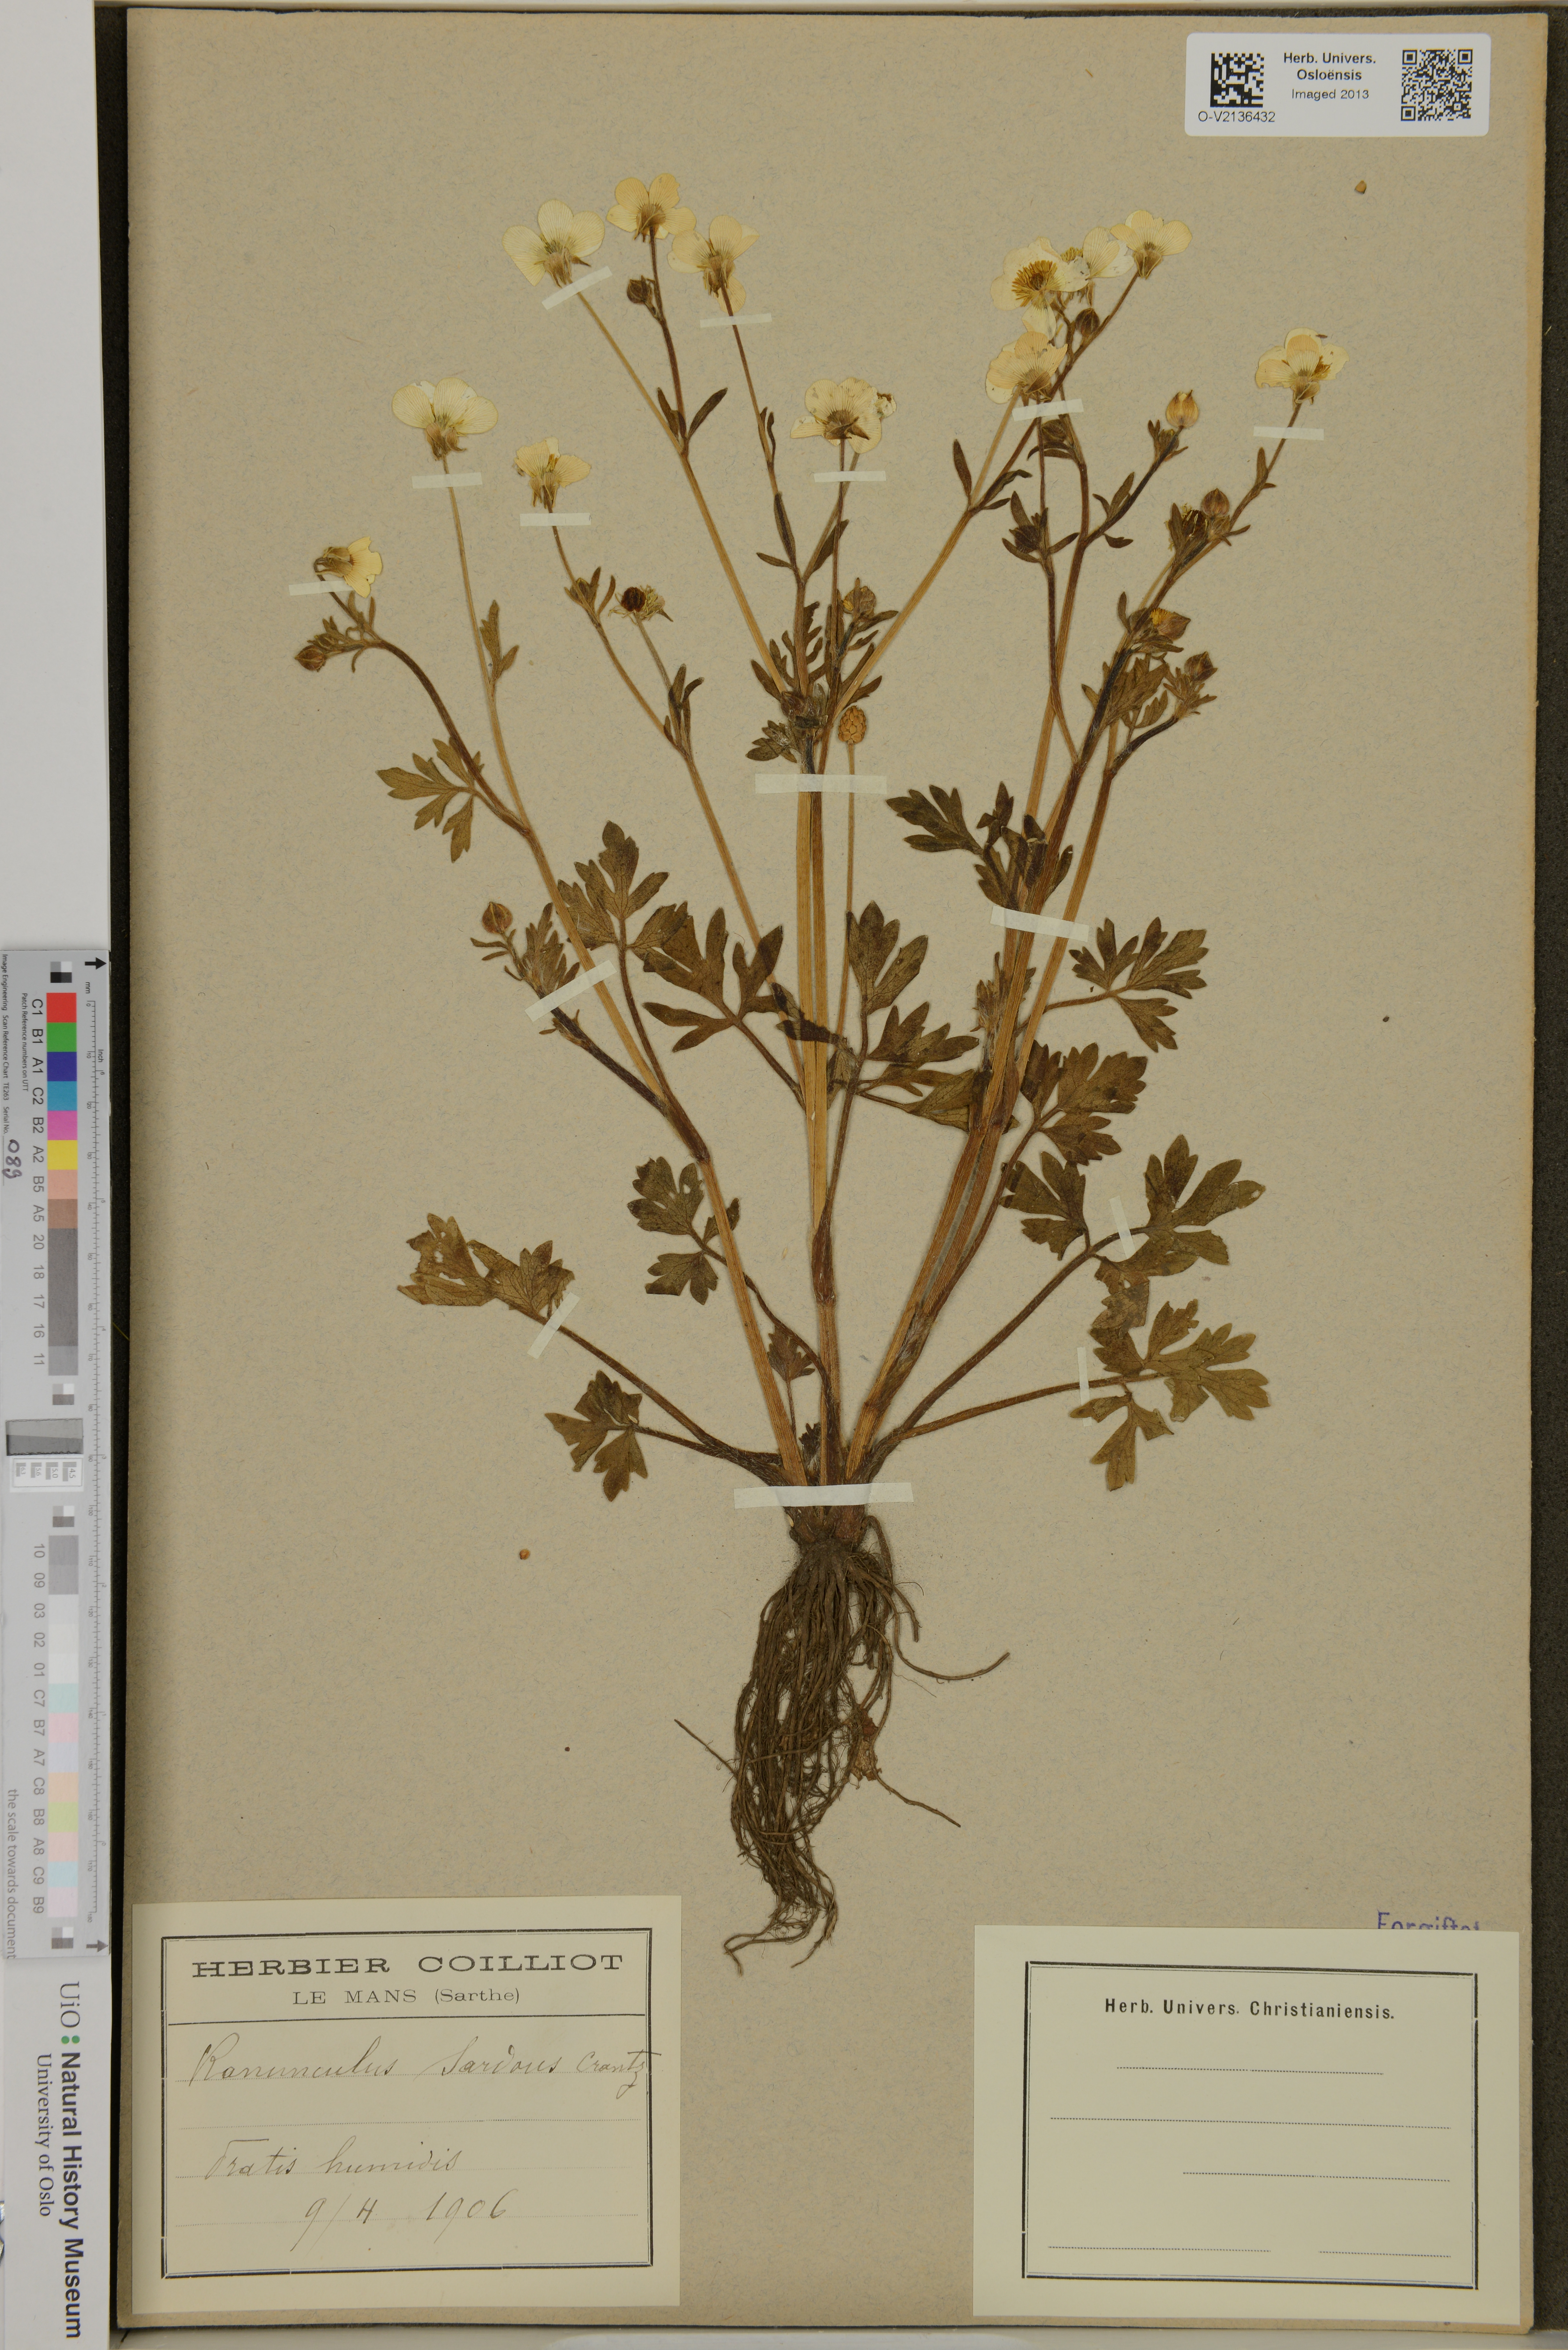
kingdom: Plantae
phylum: Tracheophyta
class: Magnoliopsida
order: Ranunculales
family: Ranunculaceae
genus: Ranunculus
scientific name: Ranunculus sardous
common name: Hairy buttercup
